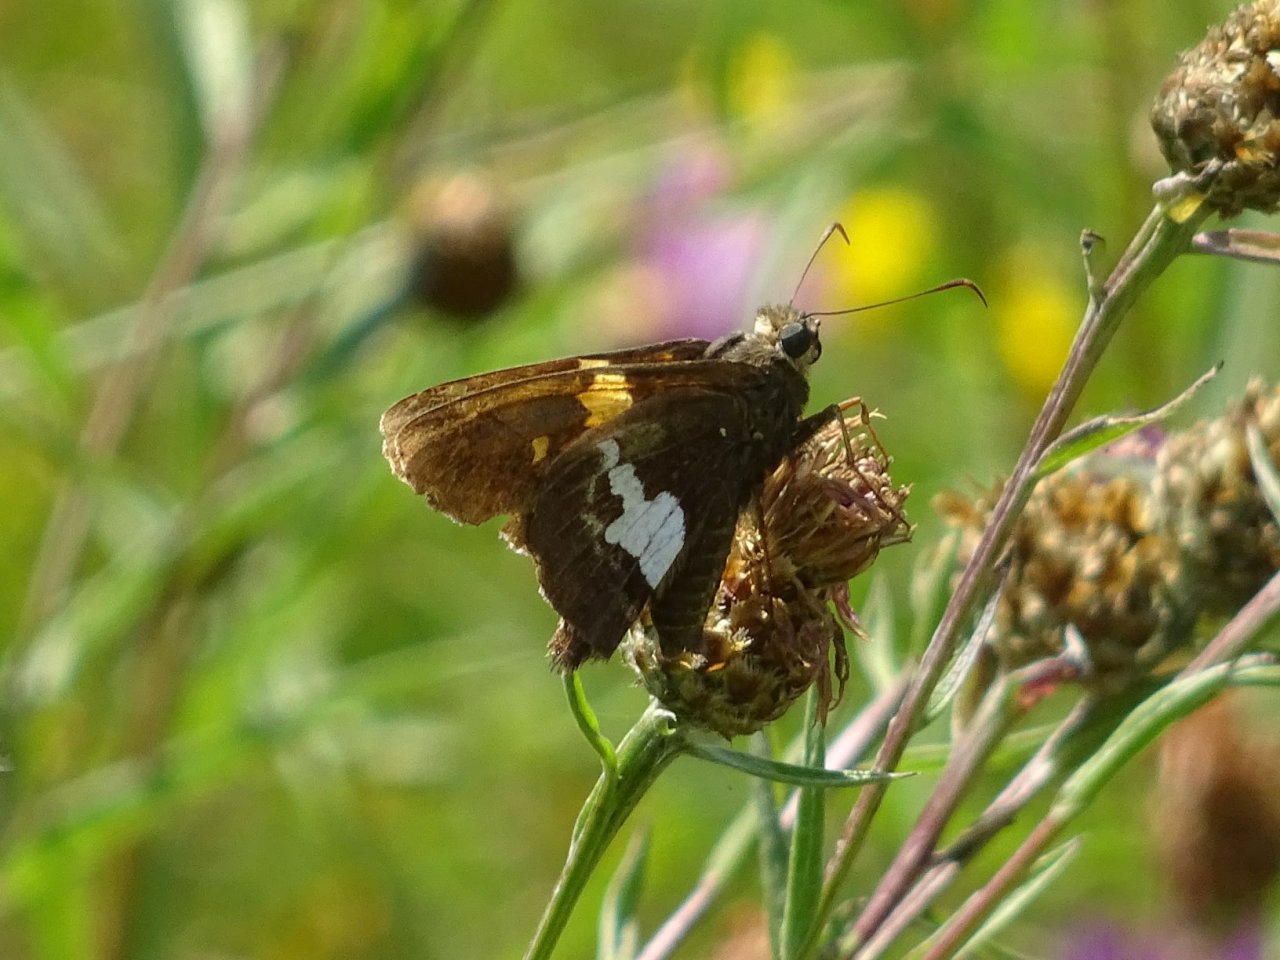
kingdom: Animalia
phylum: Arthropoda
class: Insecta
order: Lepidoptera
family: Hesperiidae
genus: Epargyreus
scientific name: Epargyreus clarus
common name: Silver-spotted Skipper
